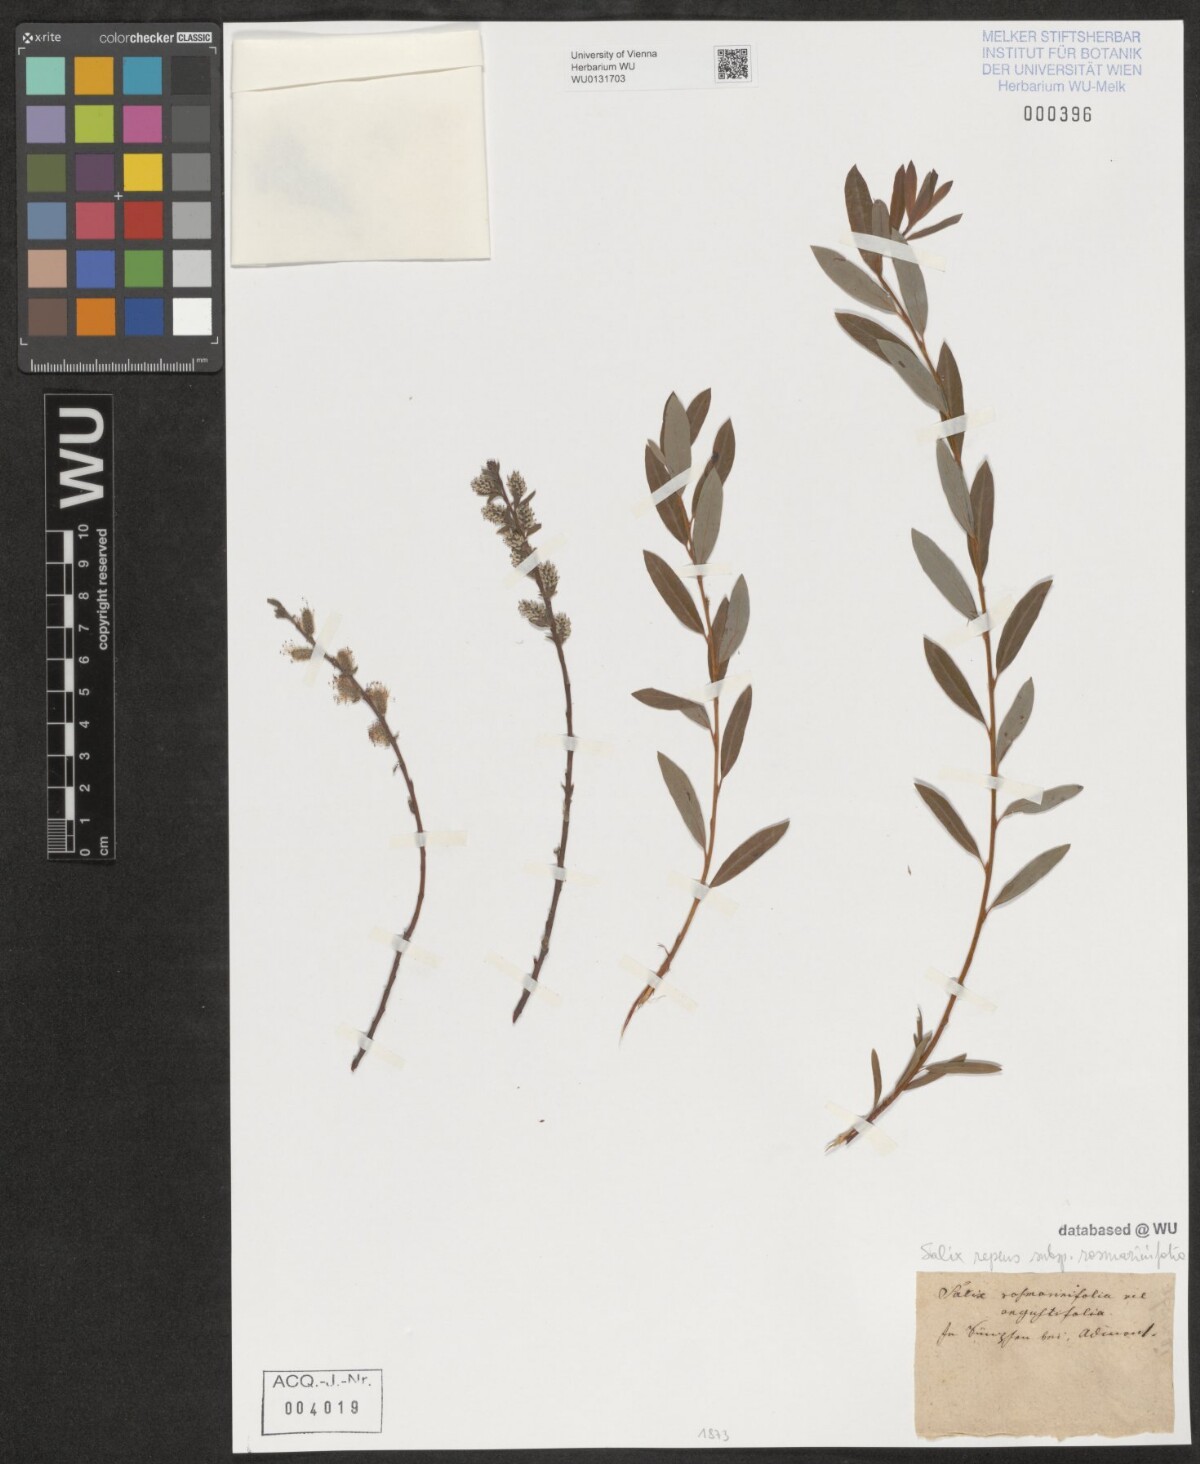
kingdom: Plantae
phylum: Tracheophyta
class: Magnoliopsida
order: Malpighiales
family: Salicaceae
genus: Salix
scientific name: Salix repens
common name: Creeping willow
